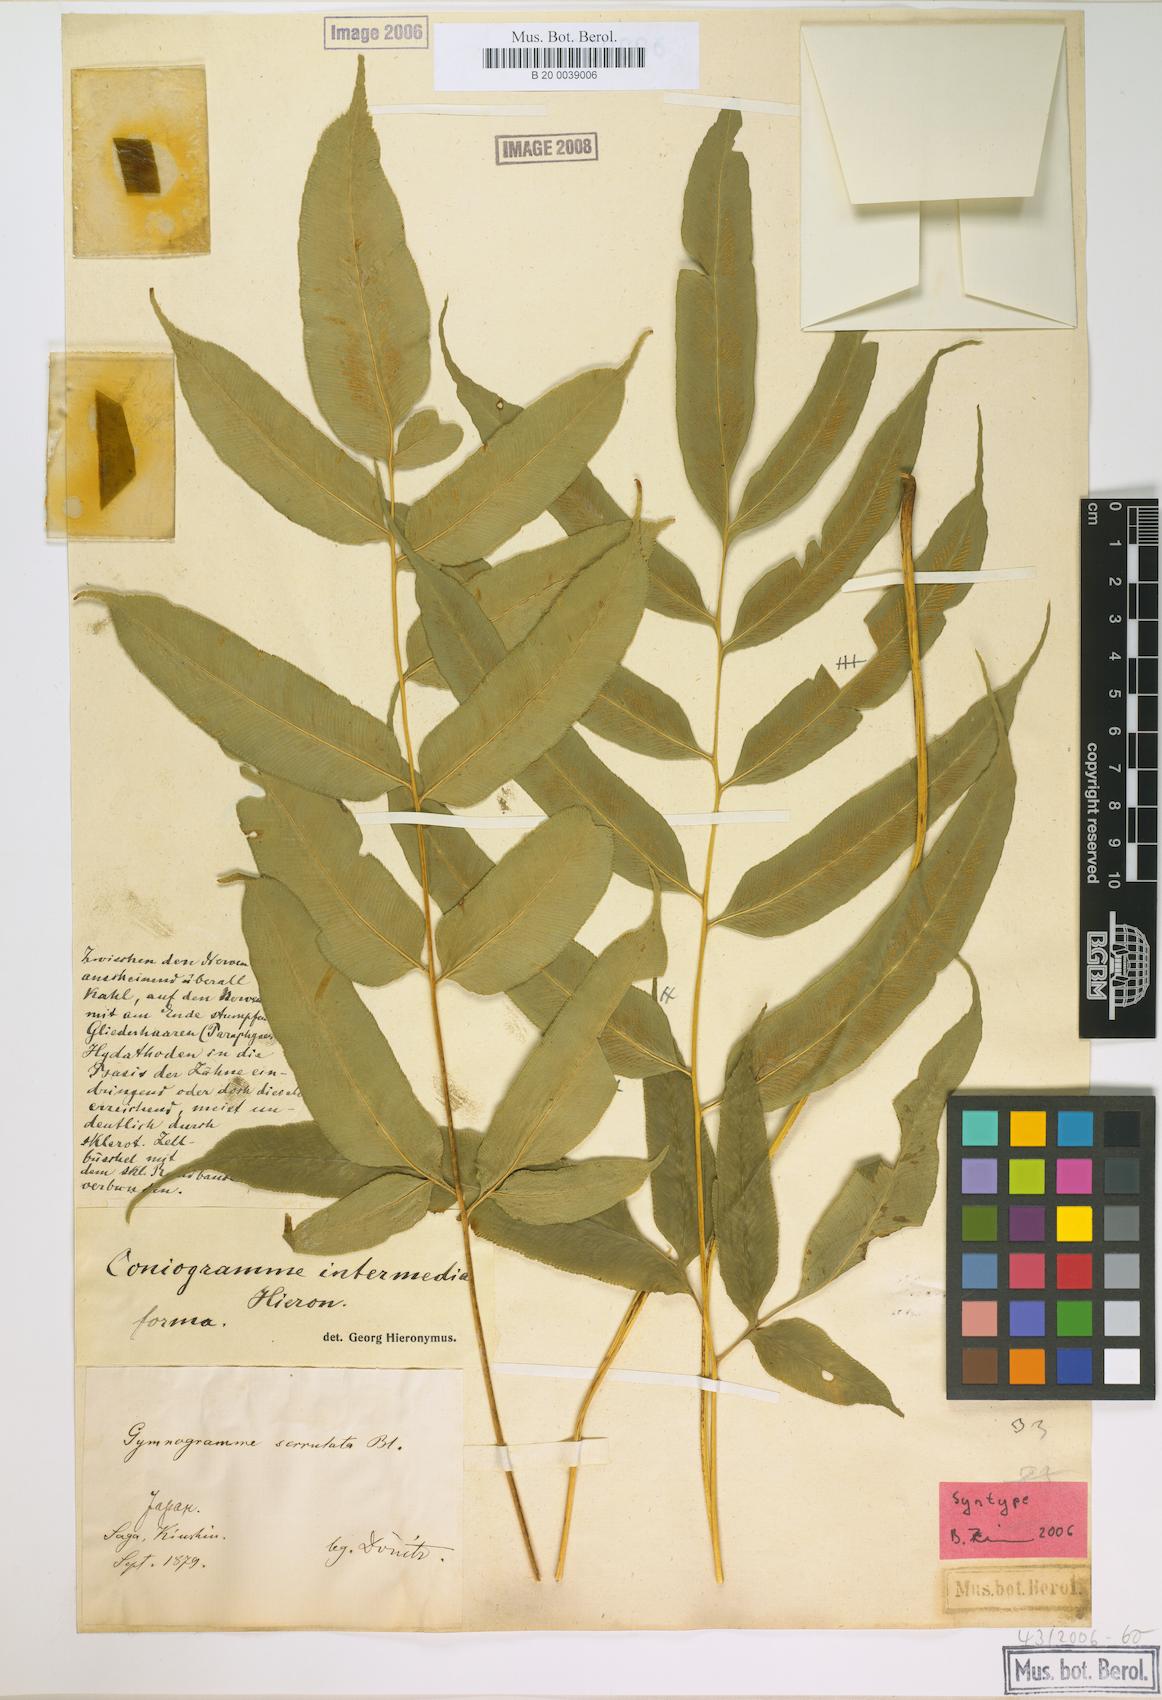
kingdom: Plantae
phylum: Tracheophyta
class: Polypodiopsida
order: Polypodiales
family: Pteridaceae
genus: Coniogramme
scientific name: Coniogramme intermedia
